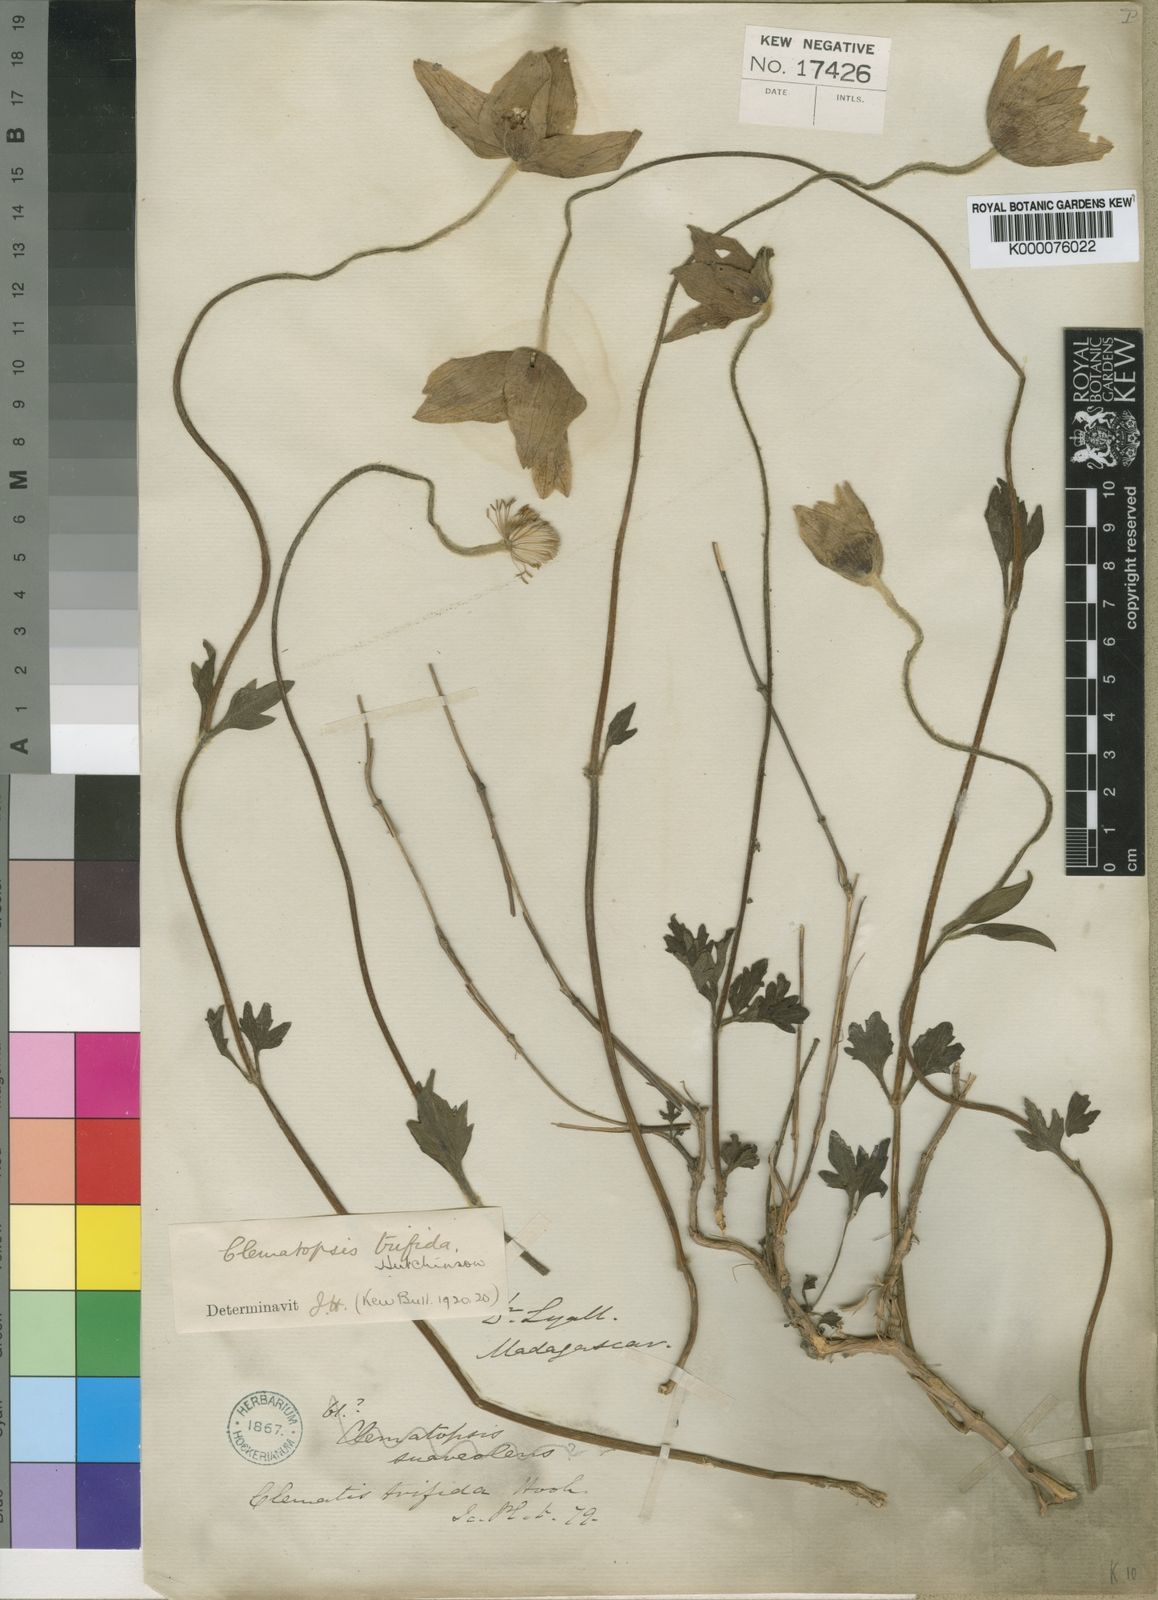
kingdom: Plantae
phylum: Tracheophyta
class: Magnoliopsida
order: Ranunculales
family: Ranunculaceae
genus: Clematis
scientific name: Clematis wangiana
